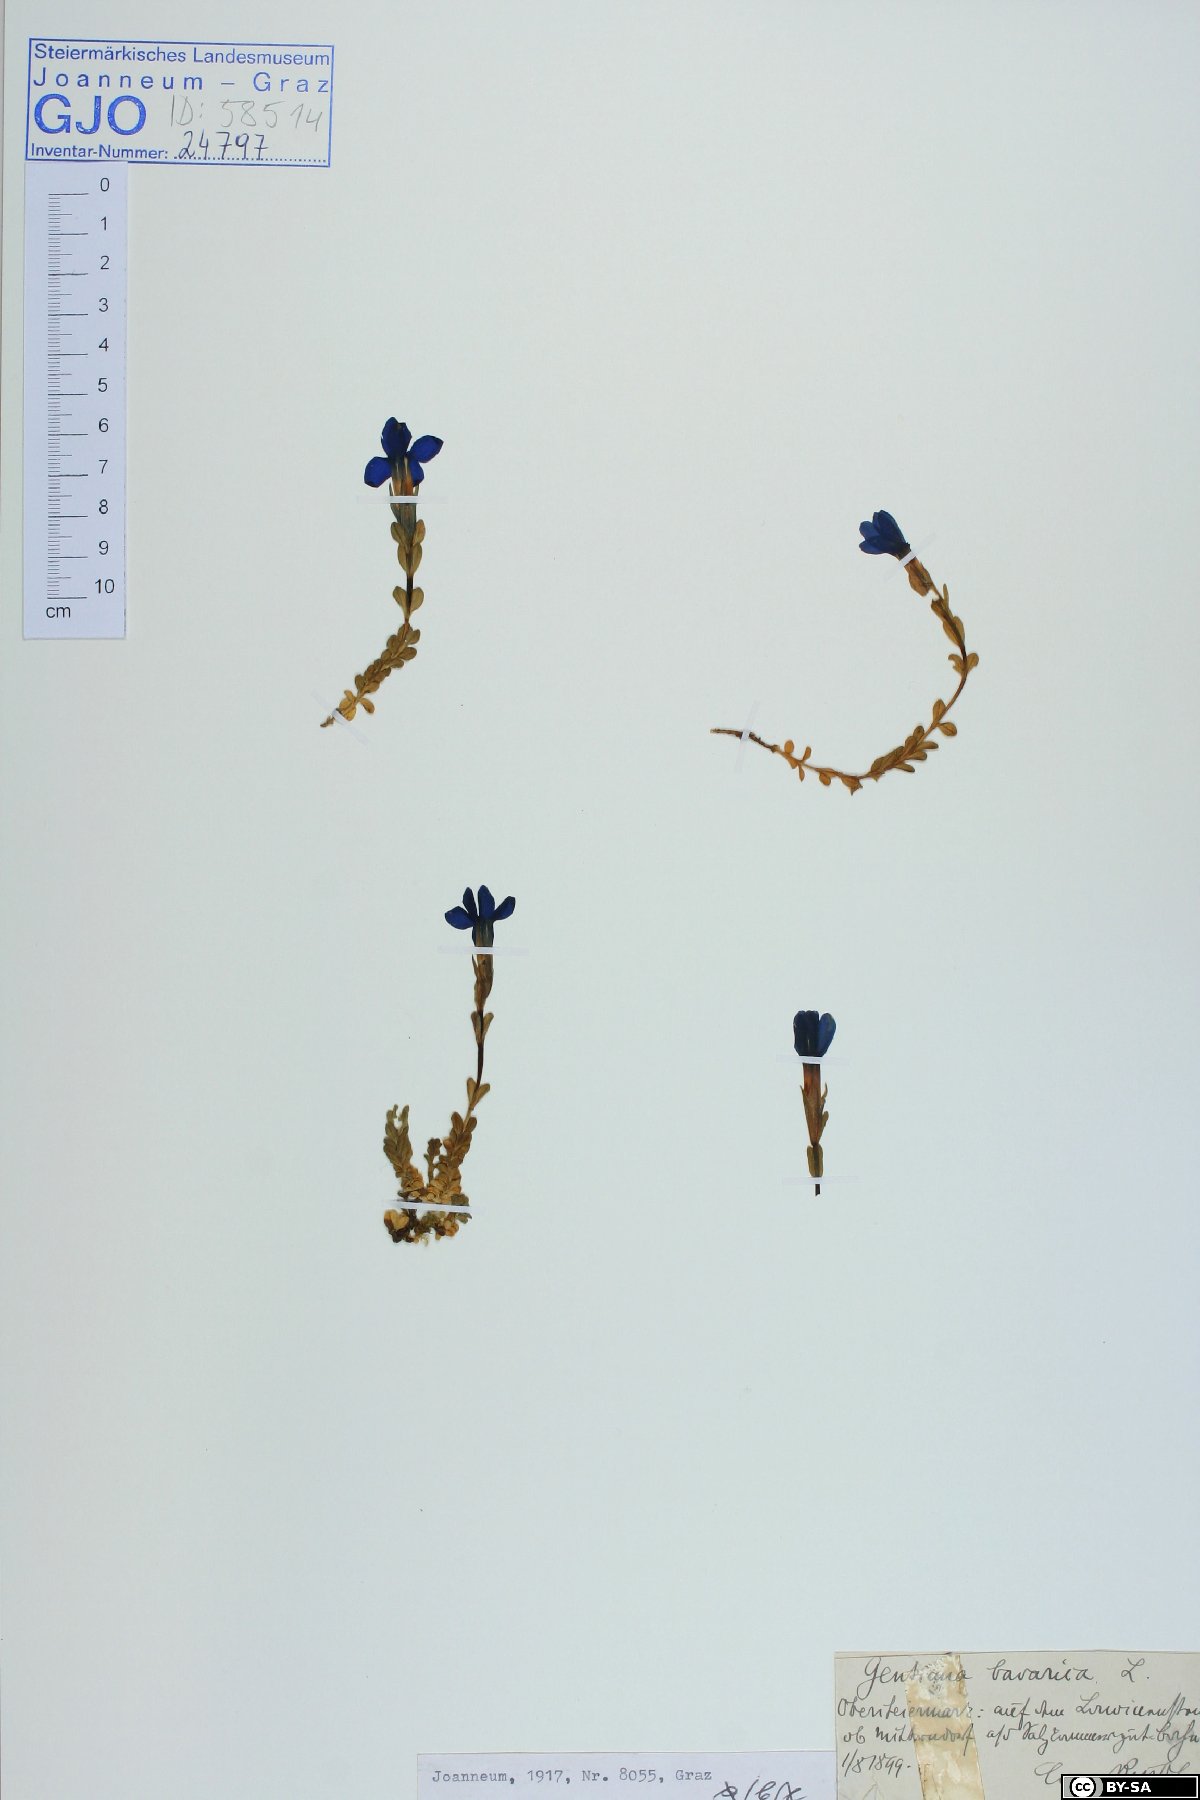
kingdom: Plantae
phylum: Tracheophyta
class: Magnoliopsida
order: Gentianales
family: Gentianaceae
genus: Gentiana
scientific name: Gentiana bavarica
